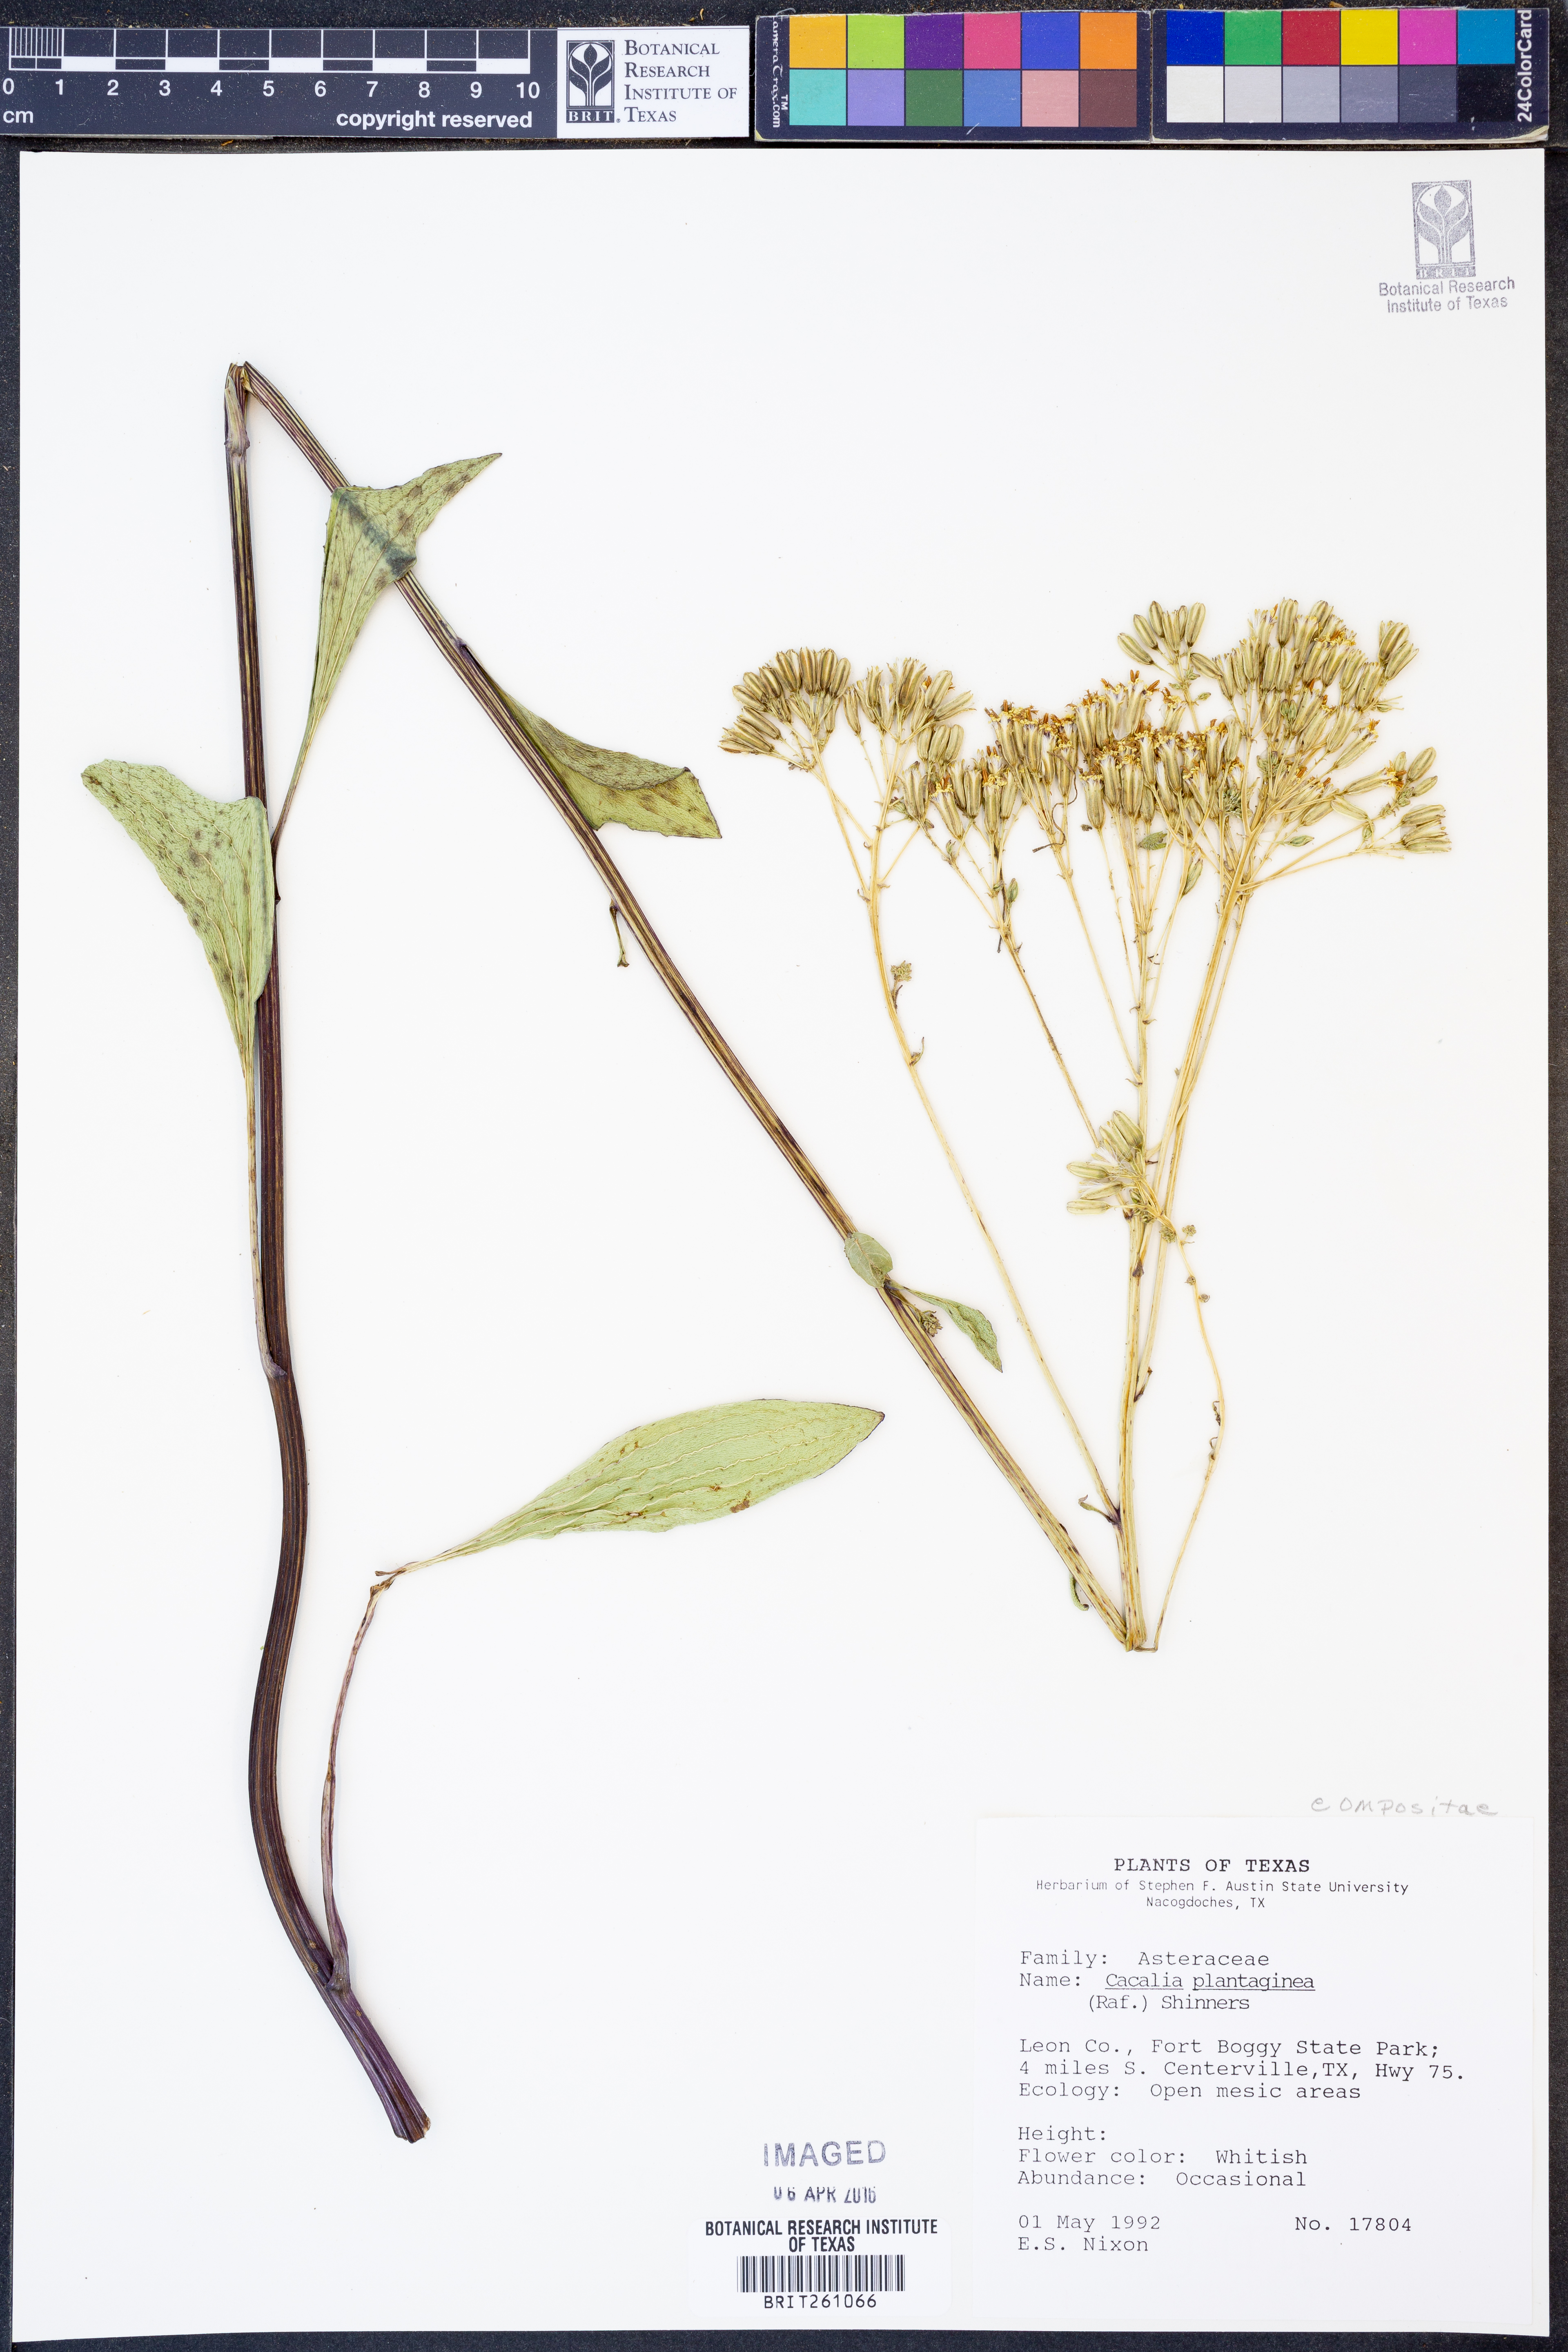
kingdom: Plantae
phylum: Tracheophyta
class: Magnoliopsida
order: Asterales
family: Asteraceae
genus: Arnoglossum
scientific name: Arnoglossum plantagineum
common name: Groove-stemmed indian-plantain
